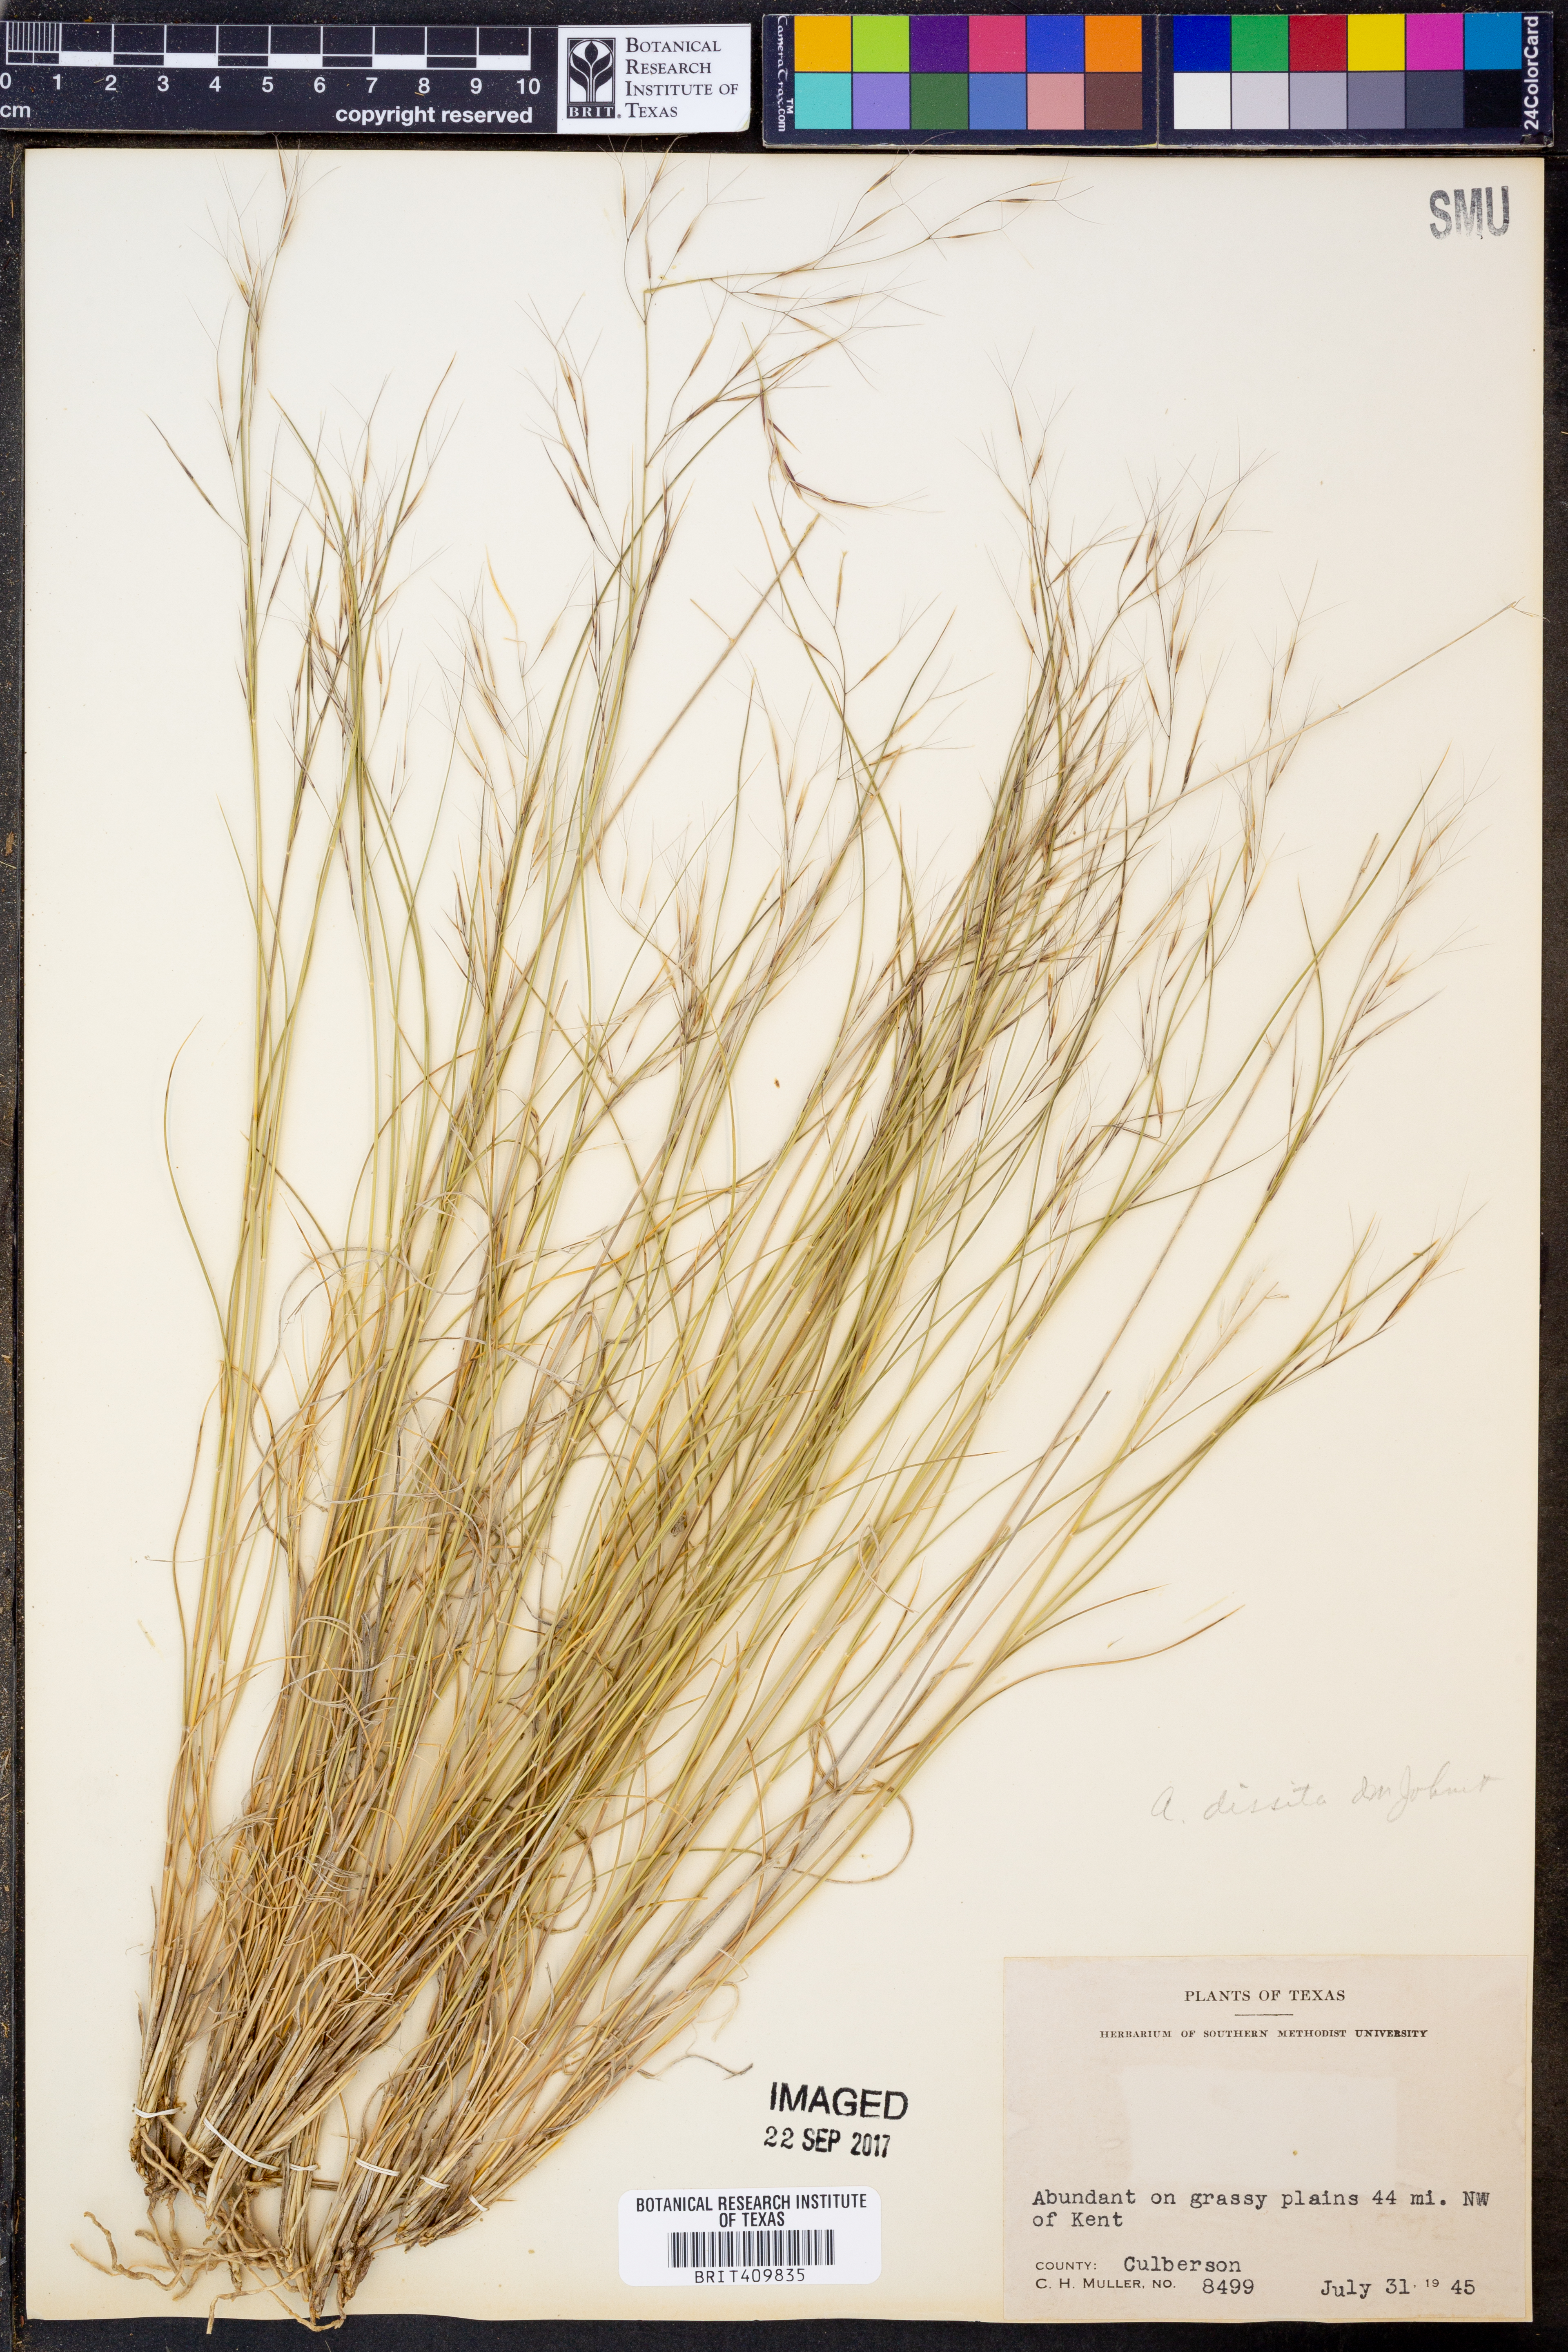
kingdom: Plantae
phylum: Tracheophyta
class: Liliopsida
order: Poales
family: Poaceae
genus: Aristida
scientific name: Aristida pansa
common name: Wooton's three-awn
